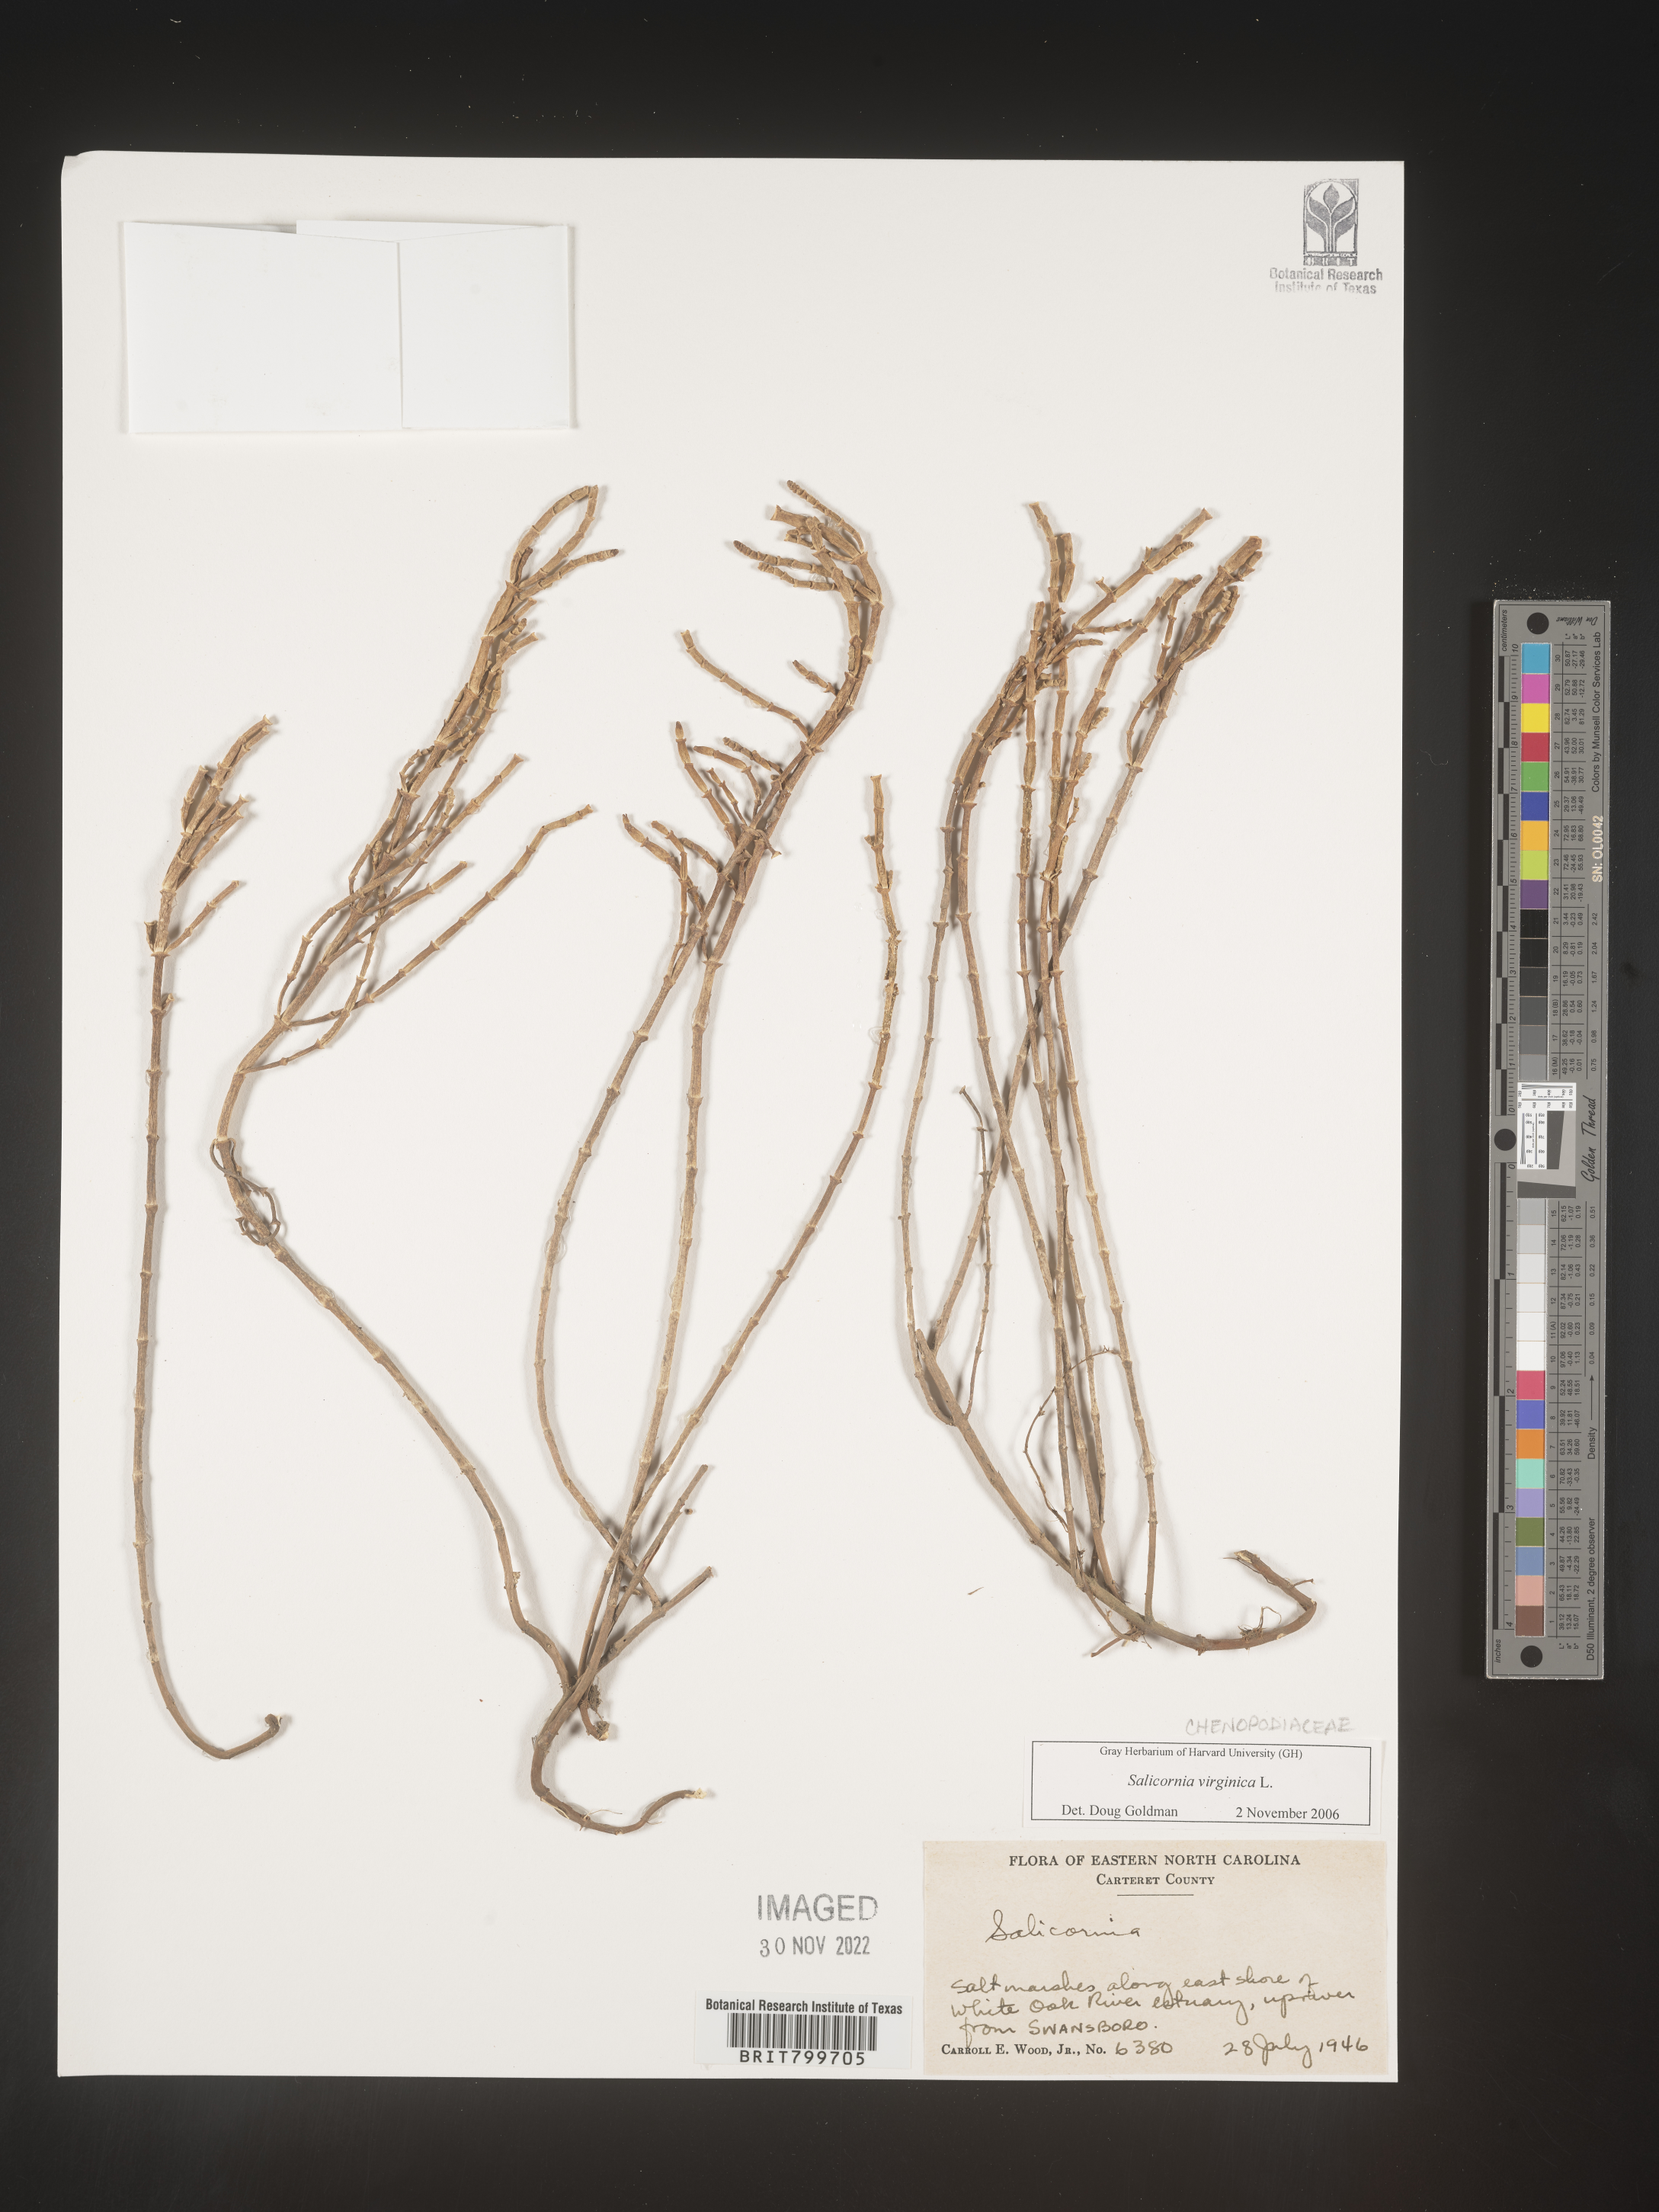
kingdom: Plantae
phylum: Tracheophyta
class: Magnoliopsida
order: Caryophyllales
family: Amaranthaceae
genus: Salicornia
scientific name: Salicornia virginica
